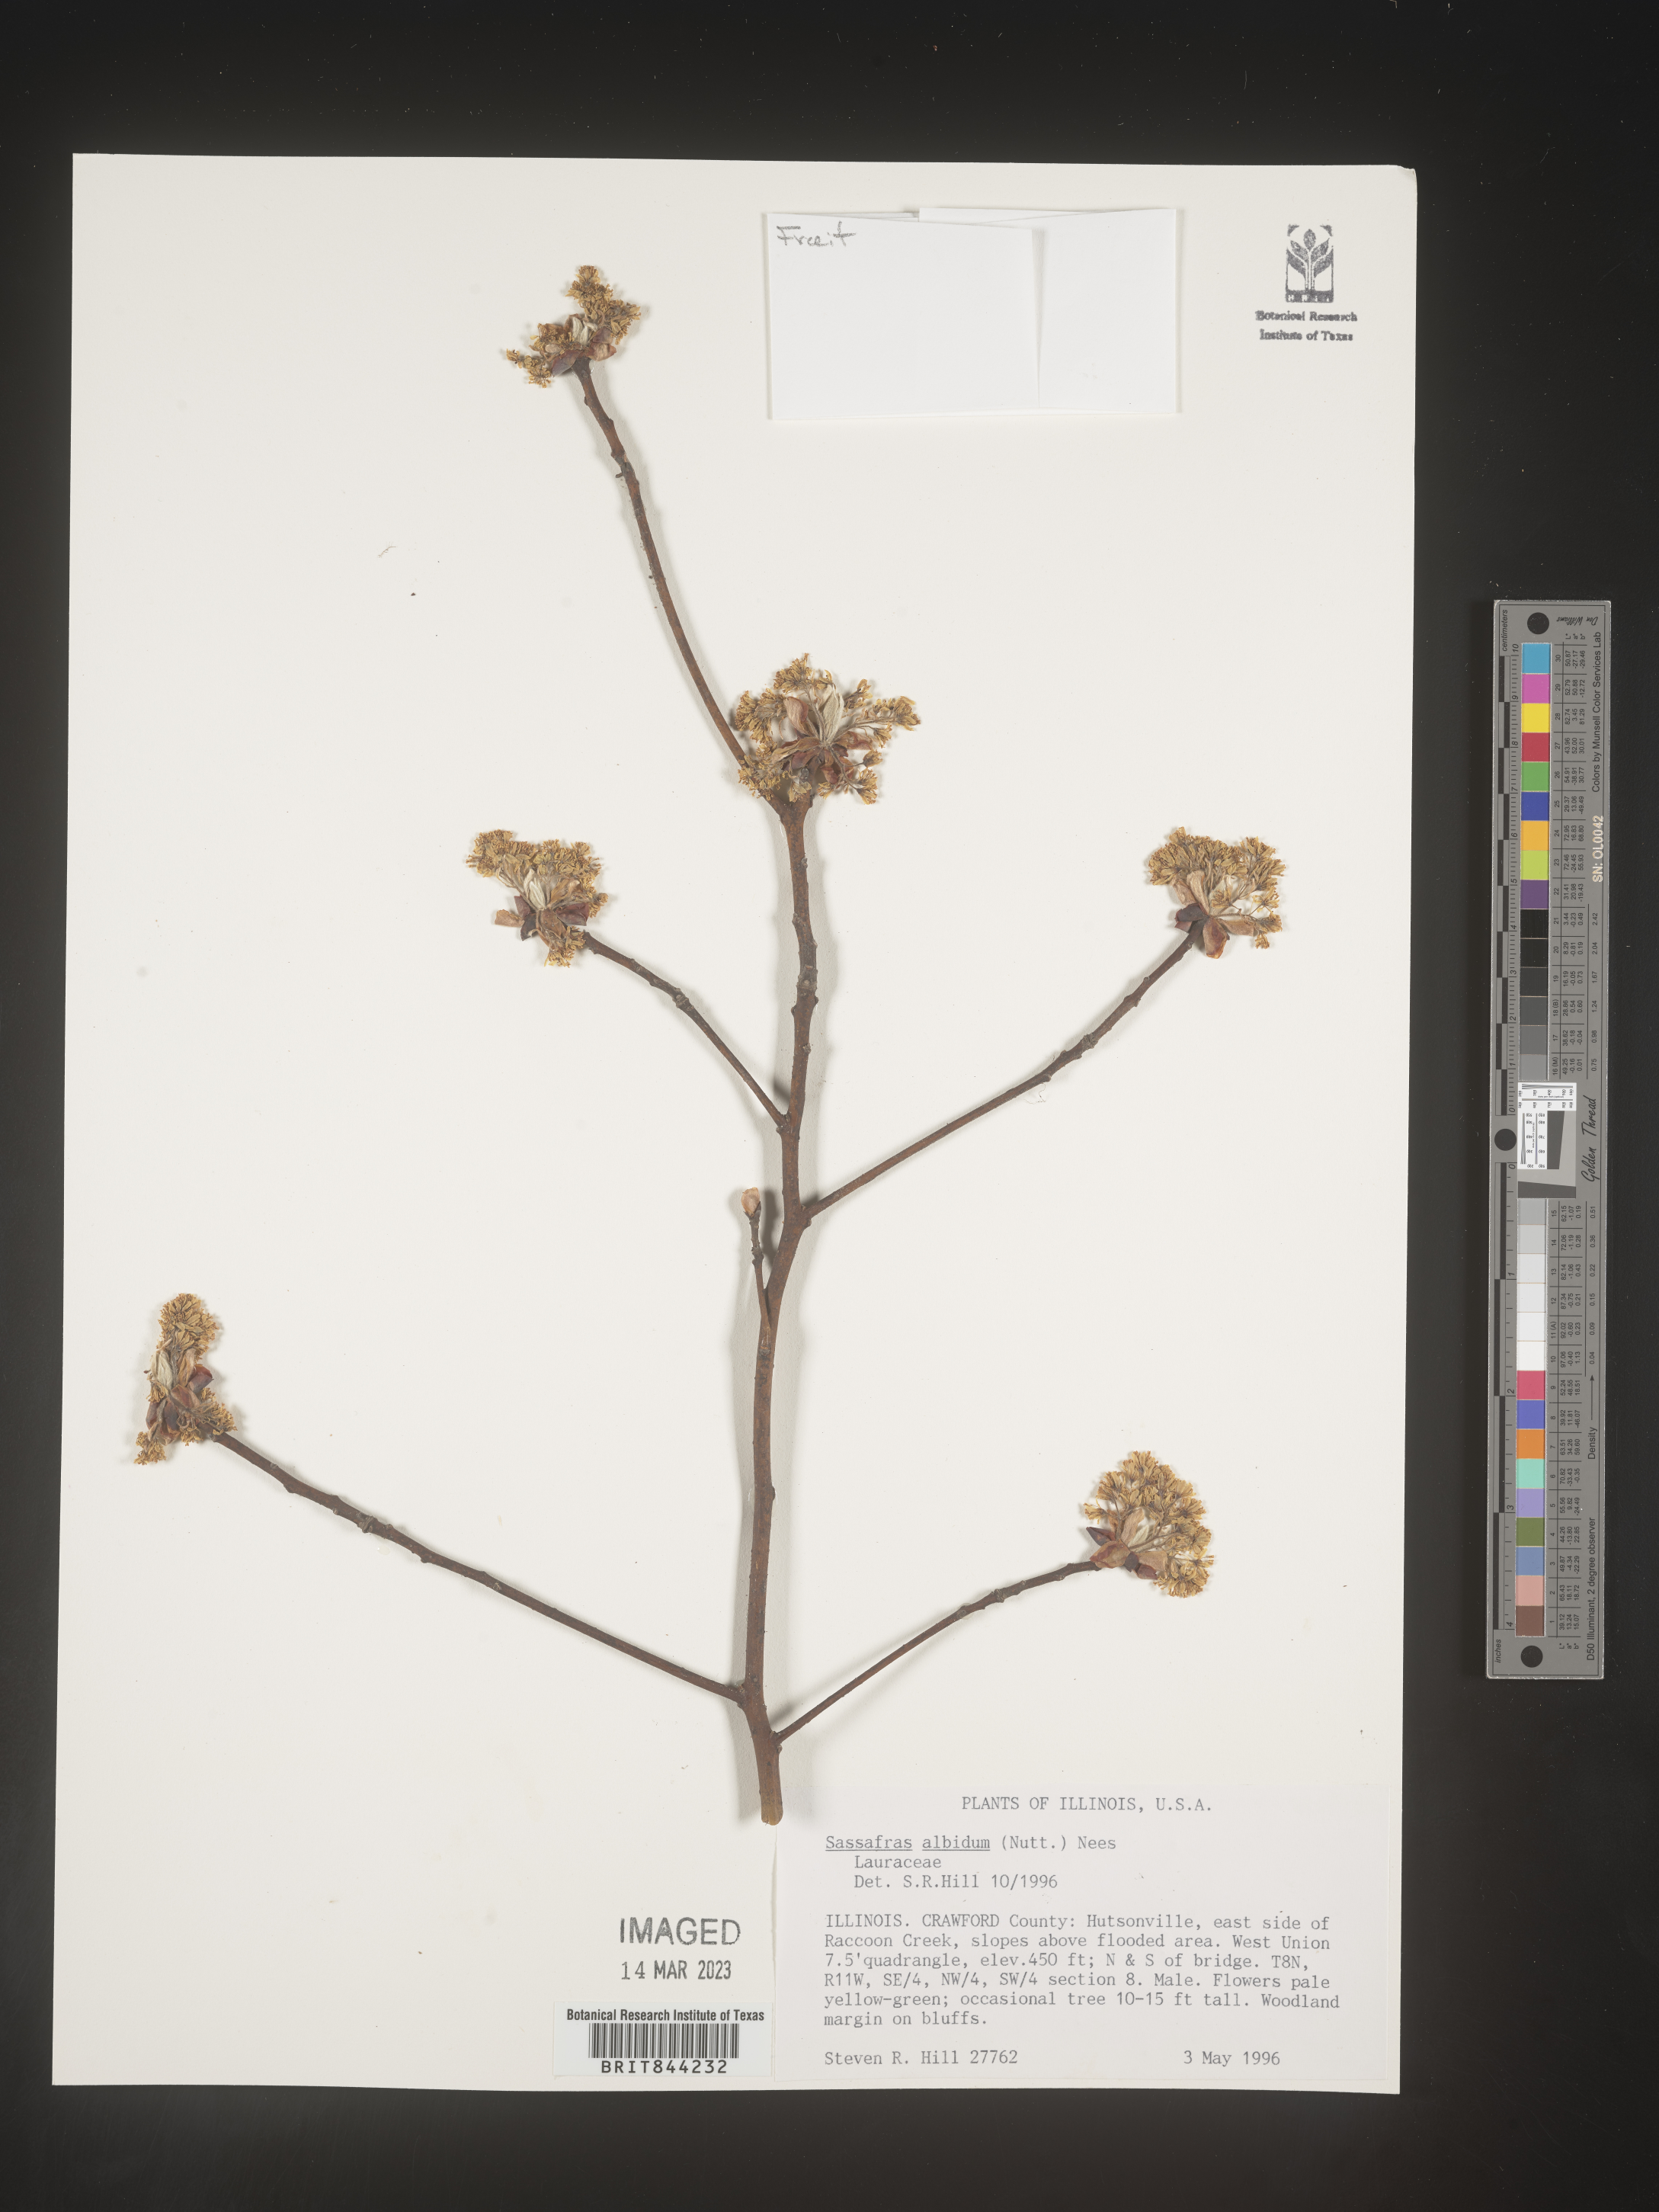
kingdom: Plantae
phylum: Tracheophyta
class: Magnoliopsida
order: Laurales
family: Lauraceae
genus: Sassafras
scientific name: Sassafras albidum
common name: Sassafras
